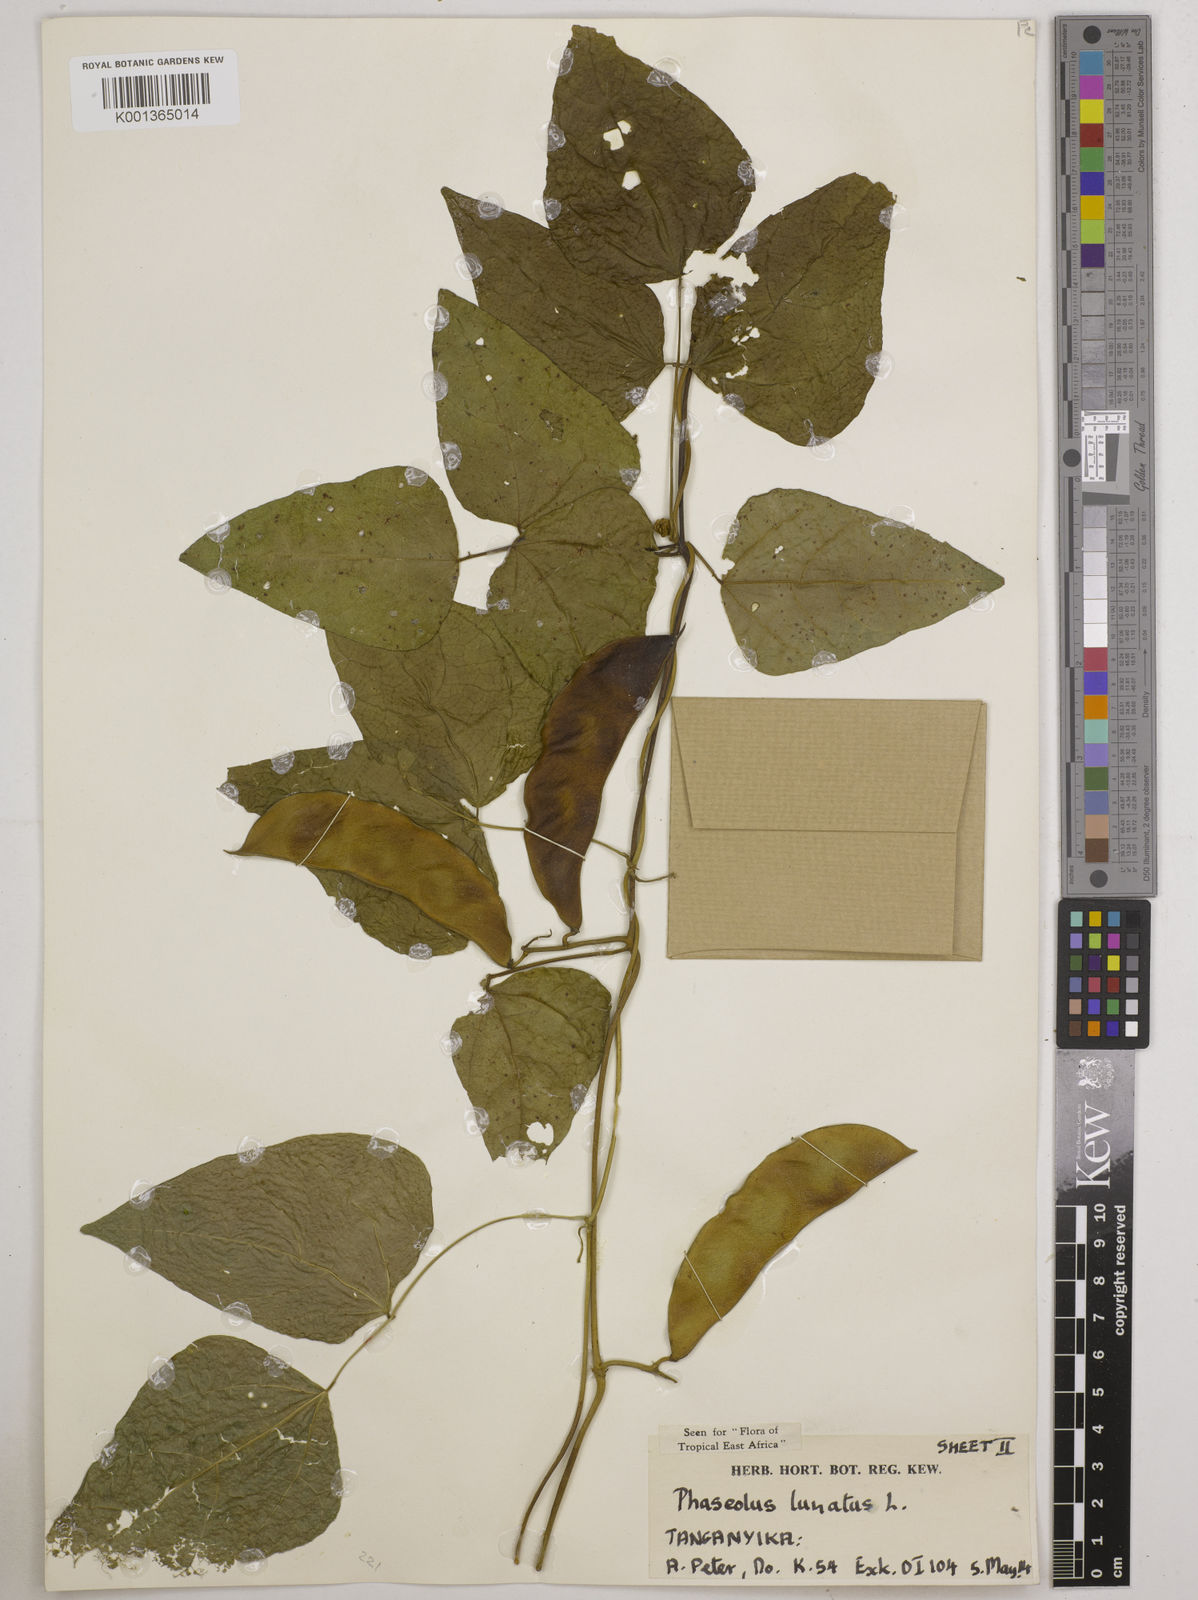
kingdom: Plantae
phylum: Tracheophyta
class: Magnoliopsida
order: Fabales
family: Fabaceae
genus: Phaseolus
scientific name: Phaseolus lunatus
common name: Sieva bean
